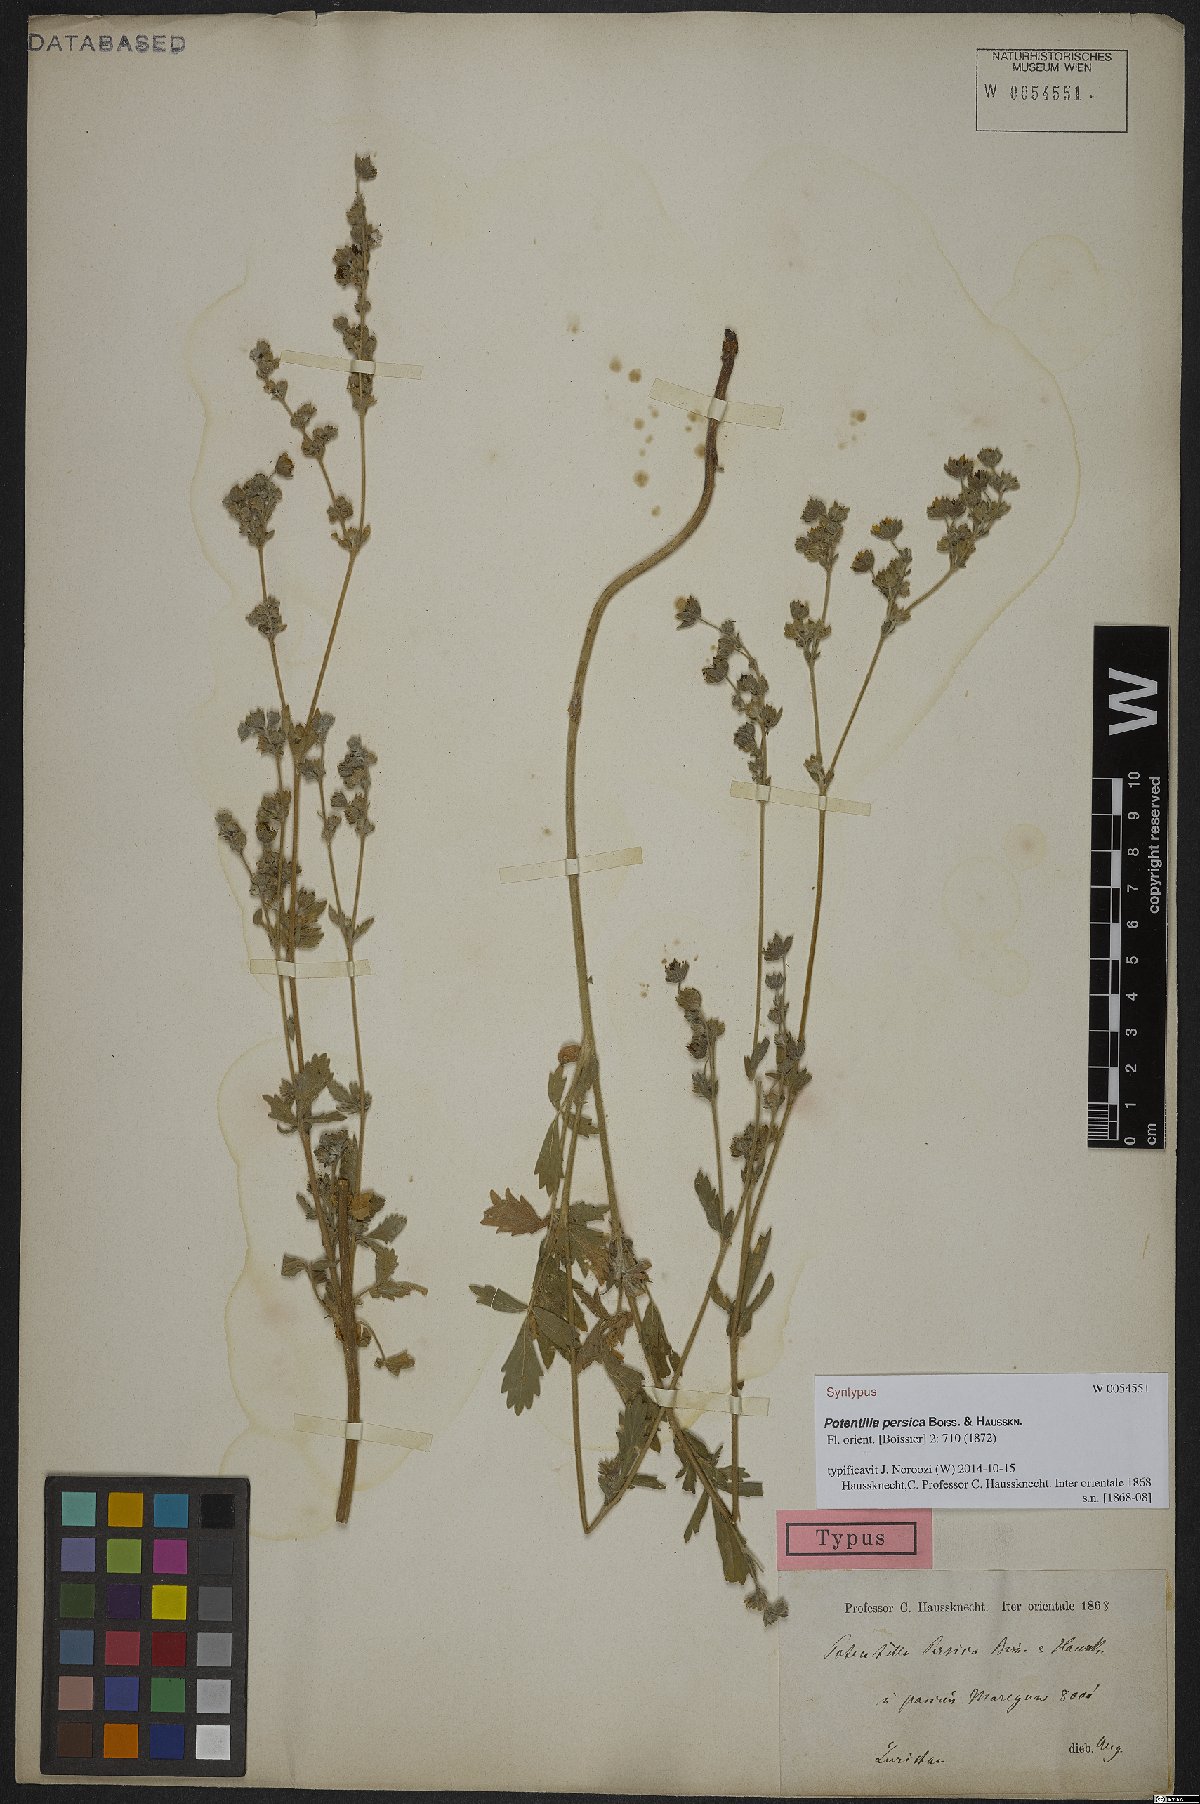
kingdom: Plantae
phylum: Tracheophyta
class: Magnoliopsida
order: Rosales
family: Rosaceae
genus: Potentilla
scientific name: Potentilla persica
